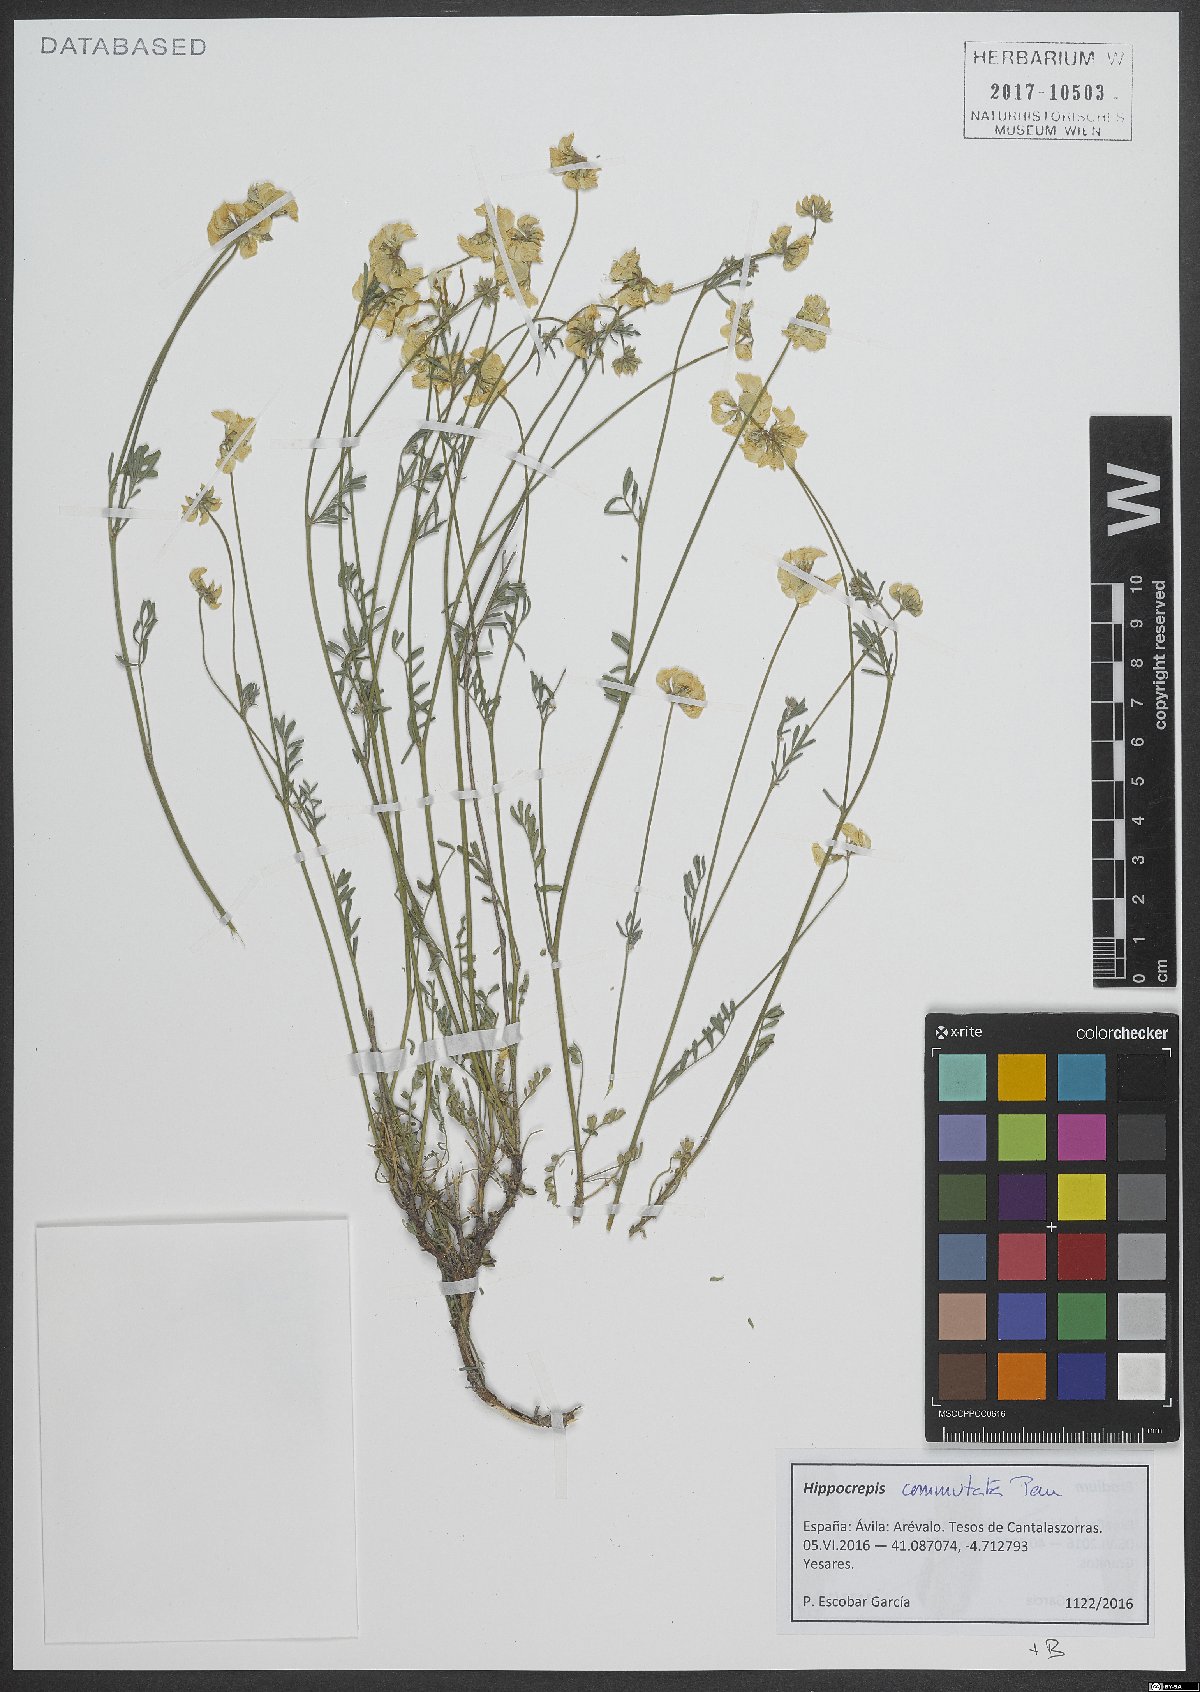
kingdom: Plantae
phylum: Tracheophyta
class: Magnoliopsida
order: Fabales
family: Fabaceae
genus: Hippocrepis
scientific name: Hippocrepis scabra
